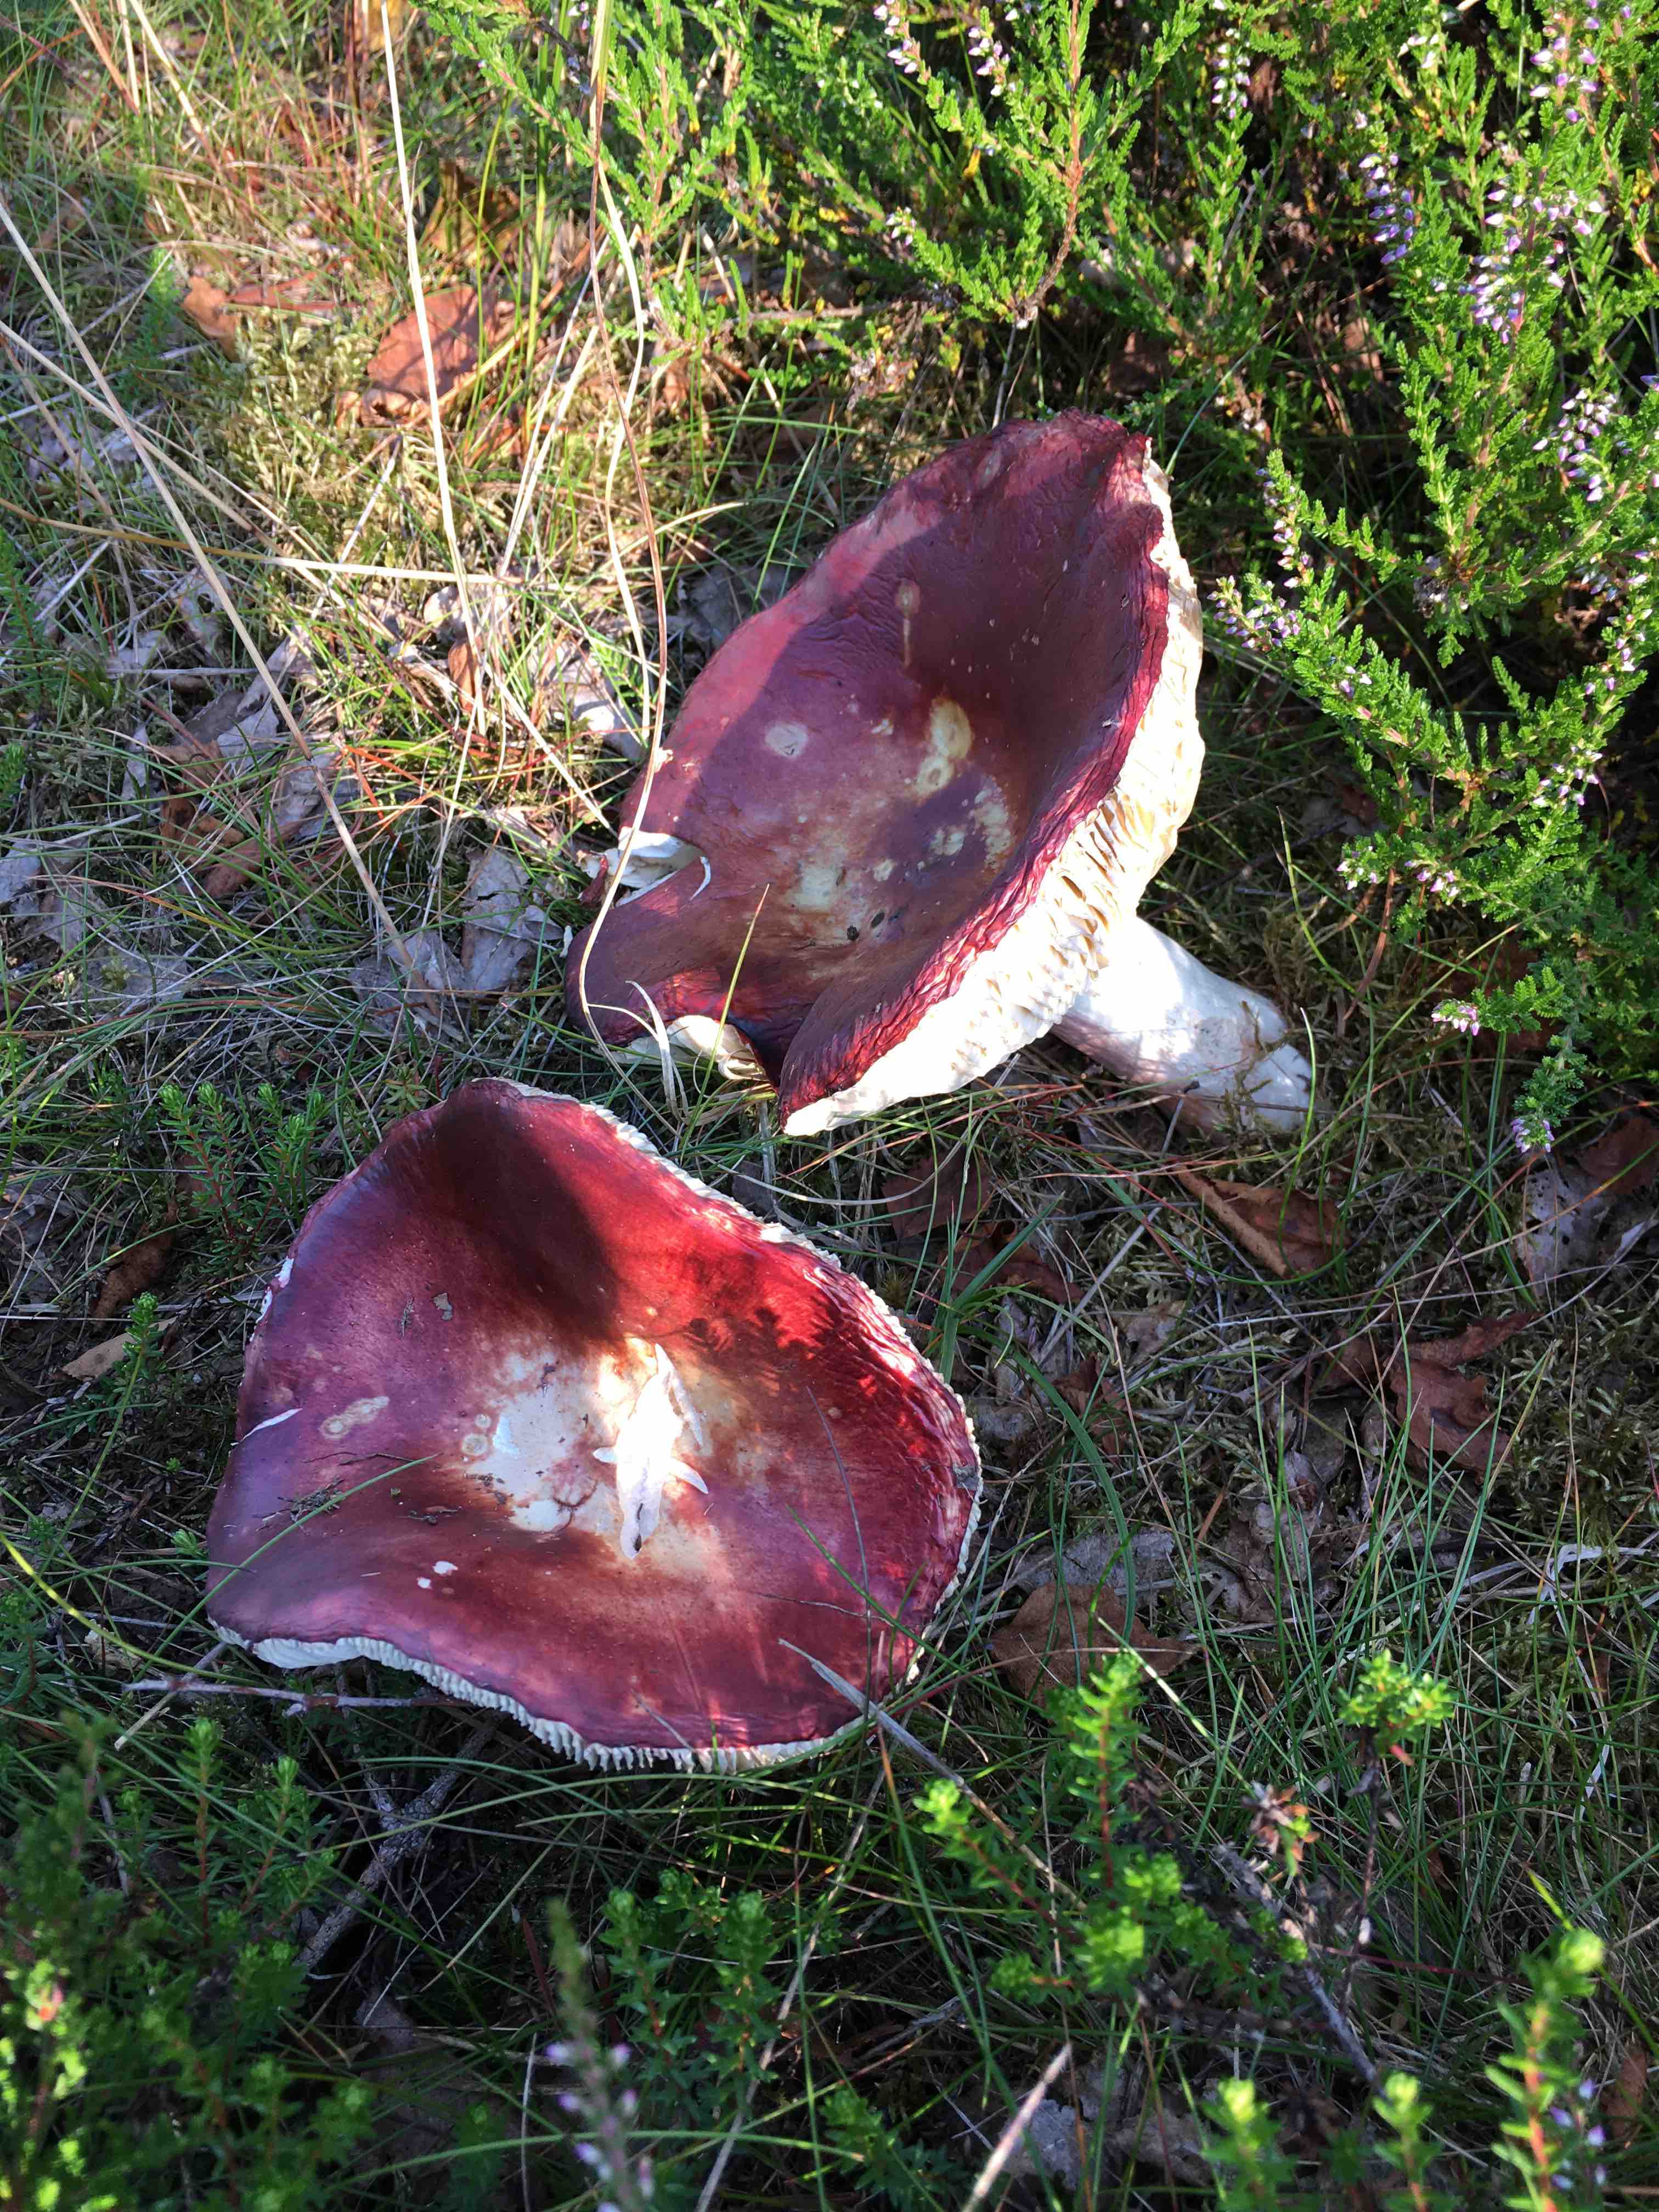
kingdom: Fungi
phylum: Basidiomycota
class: Agaricomycetes
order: Russulales
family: Russulaceae
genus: Russula
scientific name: Russula paludosa
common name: prægtig skørhat
